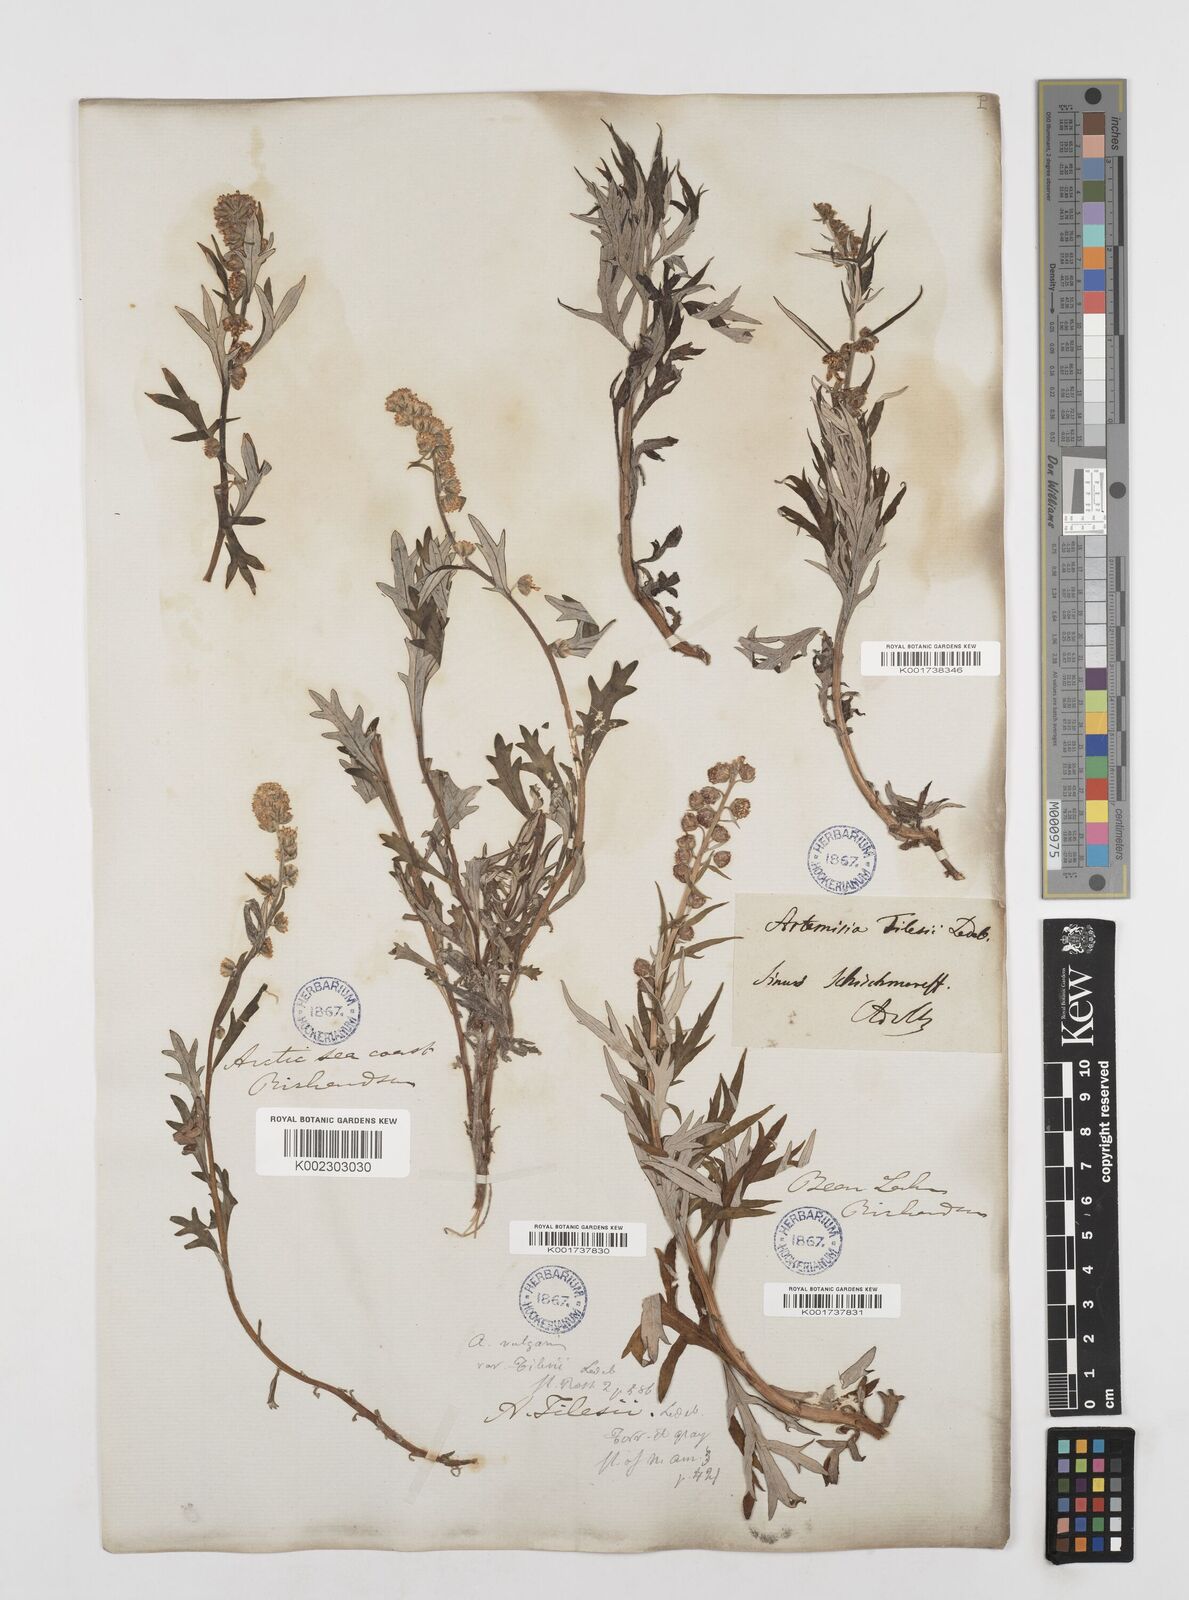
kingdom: Plantae
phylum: Tracheophyta
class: Magnoliopsida
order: Asterales
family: Asteraceae
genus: Artemisia
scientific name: Artemisia
